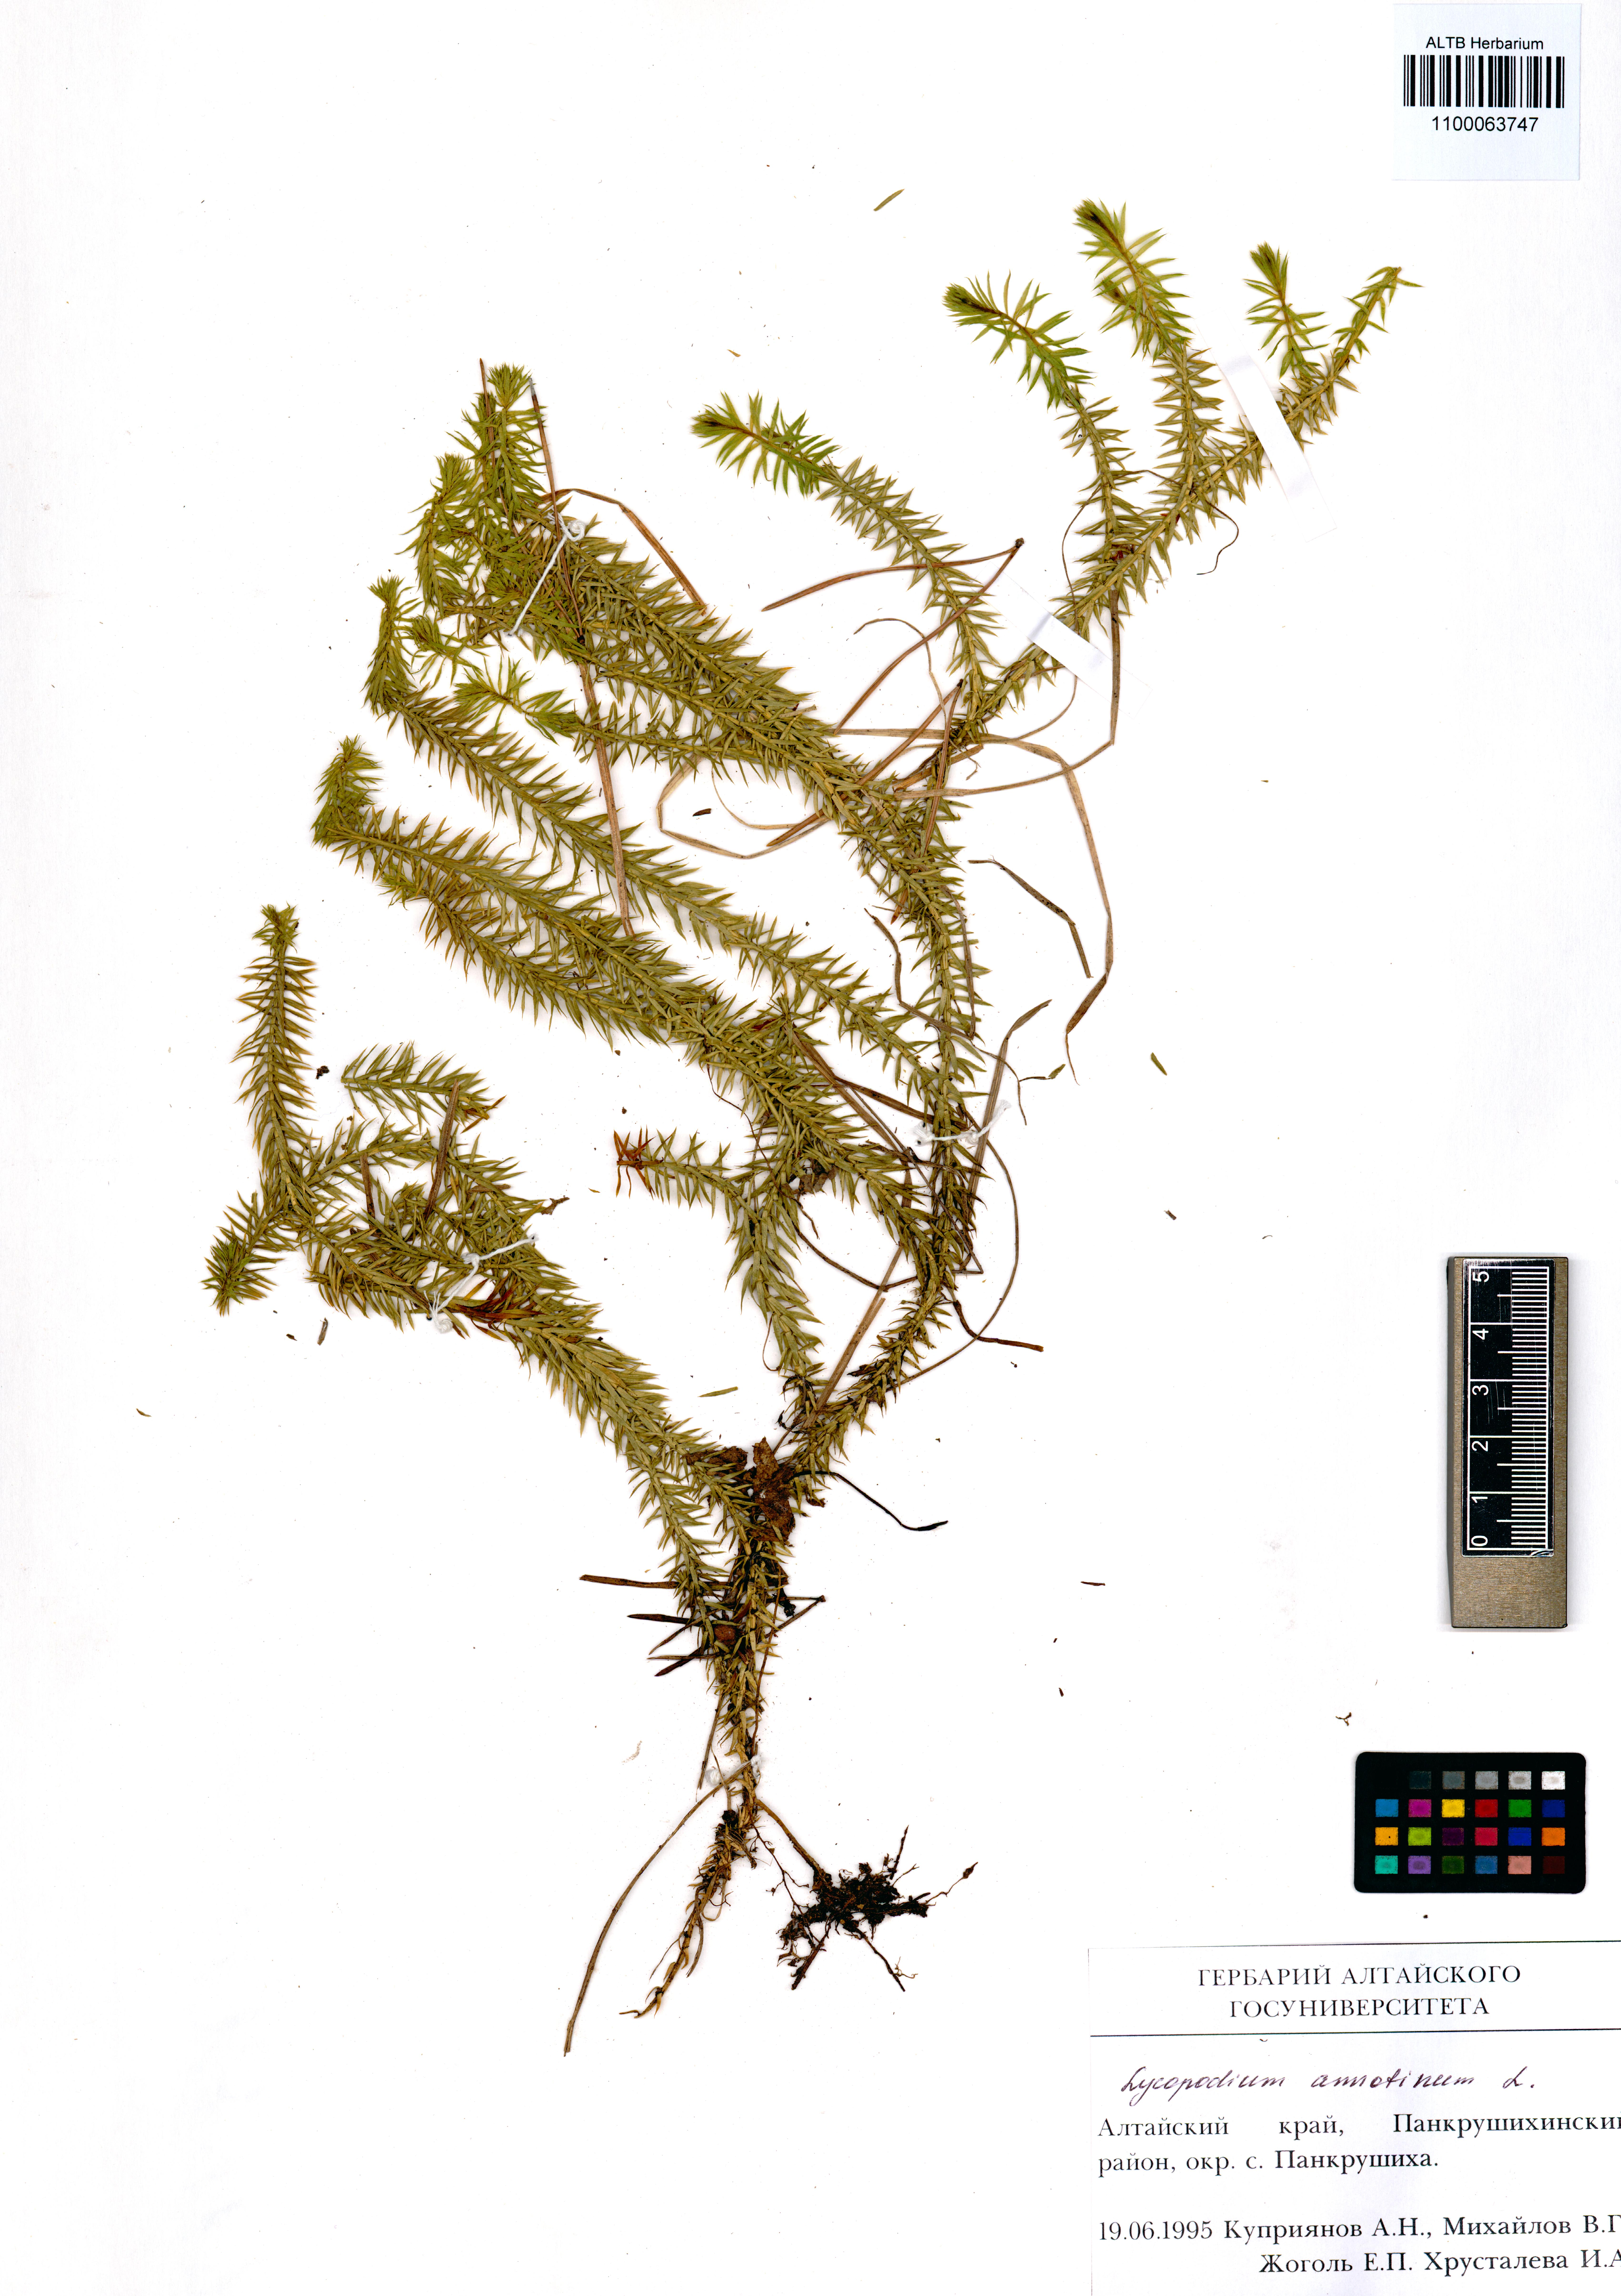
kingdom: Plantae
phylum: Tracheophyta
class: Lycopodiopsida
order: Lycopodiales
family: Lycopodiaceae
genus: Spinulum
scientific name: Spinulum annotinum
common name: Interrupted club-moss
